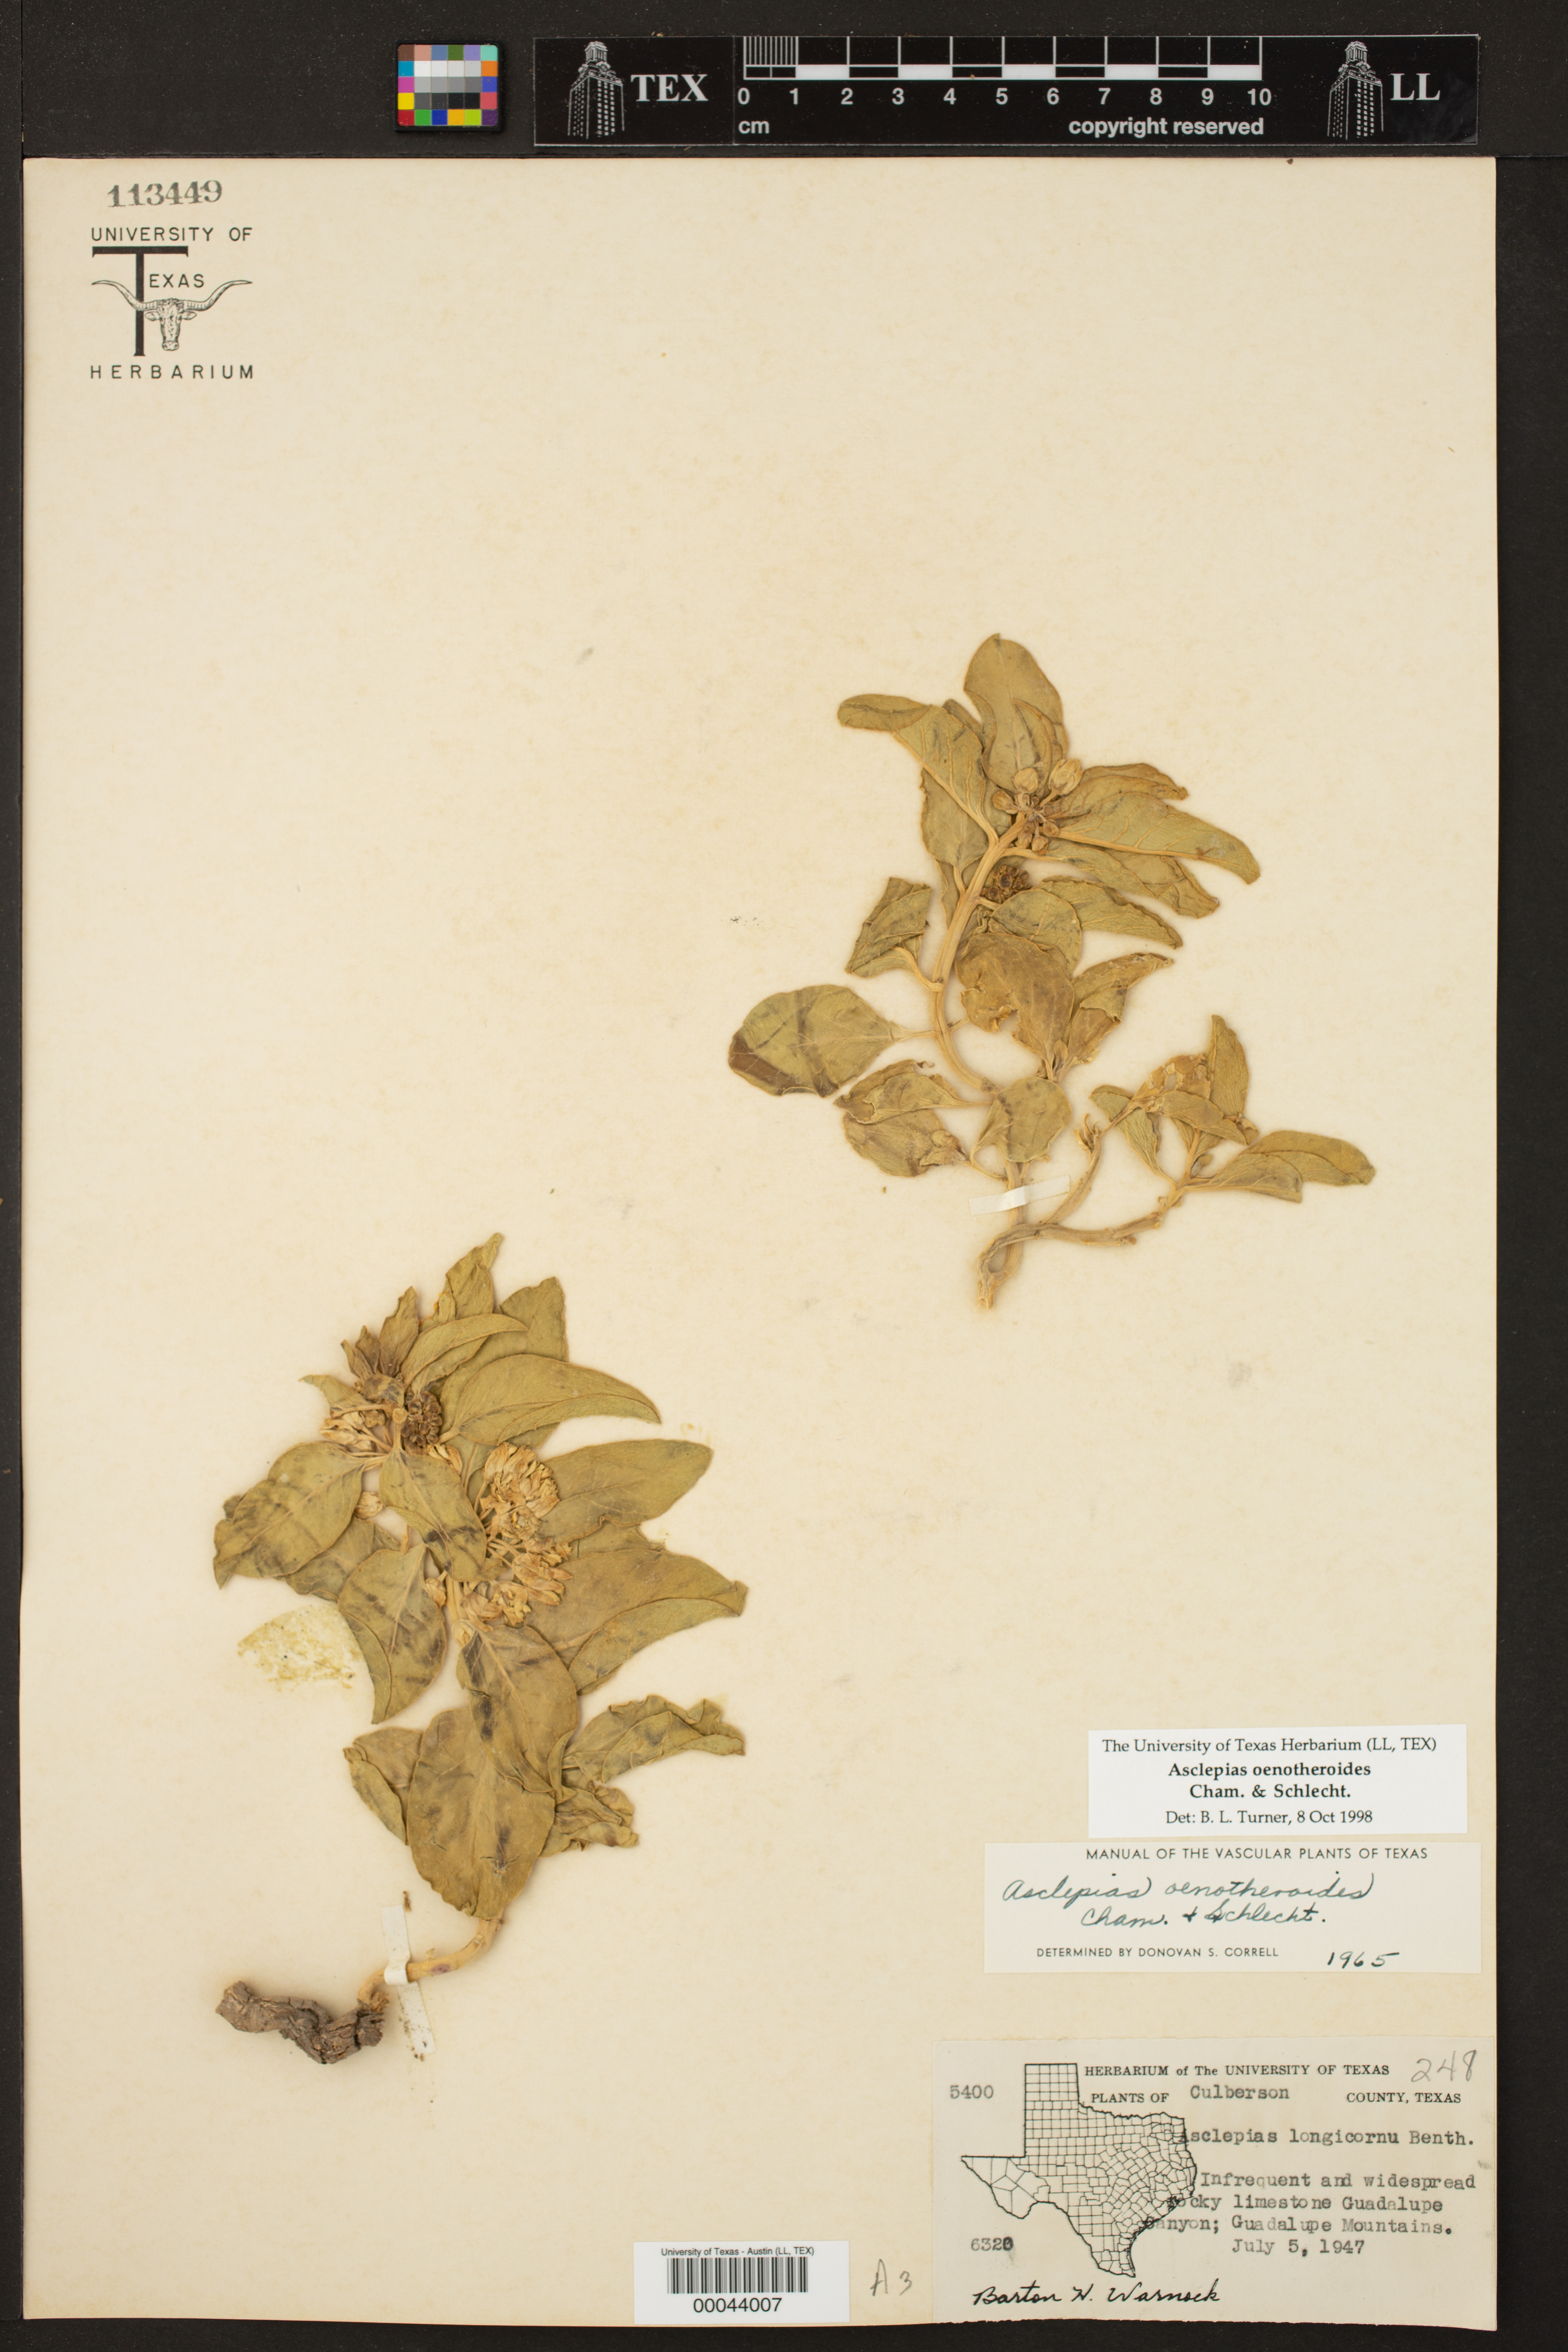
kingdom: Plantae
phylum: Tracheophyta
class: Magnoliopsida
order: Gentianales
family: Apocynaceae
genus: Asclepias
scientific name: Asclepias oenotheroides
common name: Zizotes milkweed
